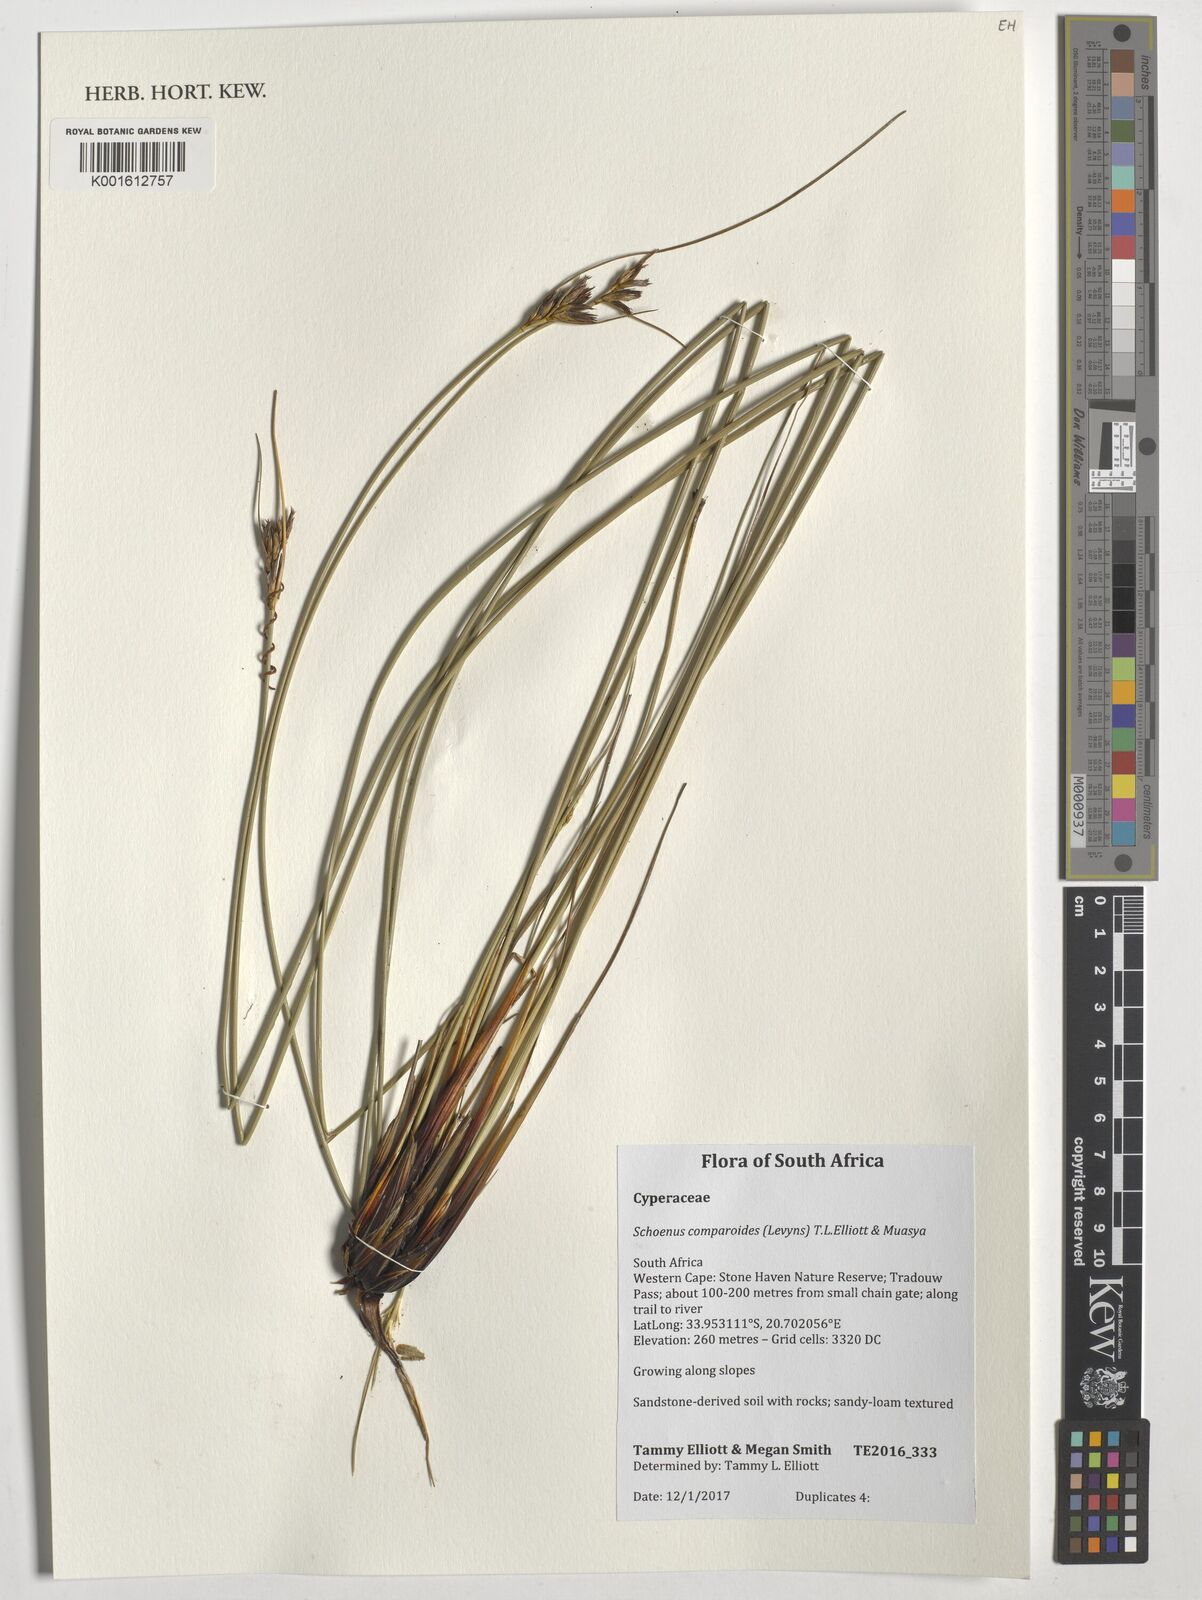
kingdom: Plantae
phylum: Tracheophyta
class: Liliopsida
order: Poales
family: Cyperaceae
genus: Schoenus
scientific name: Schoenus comparoides
